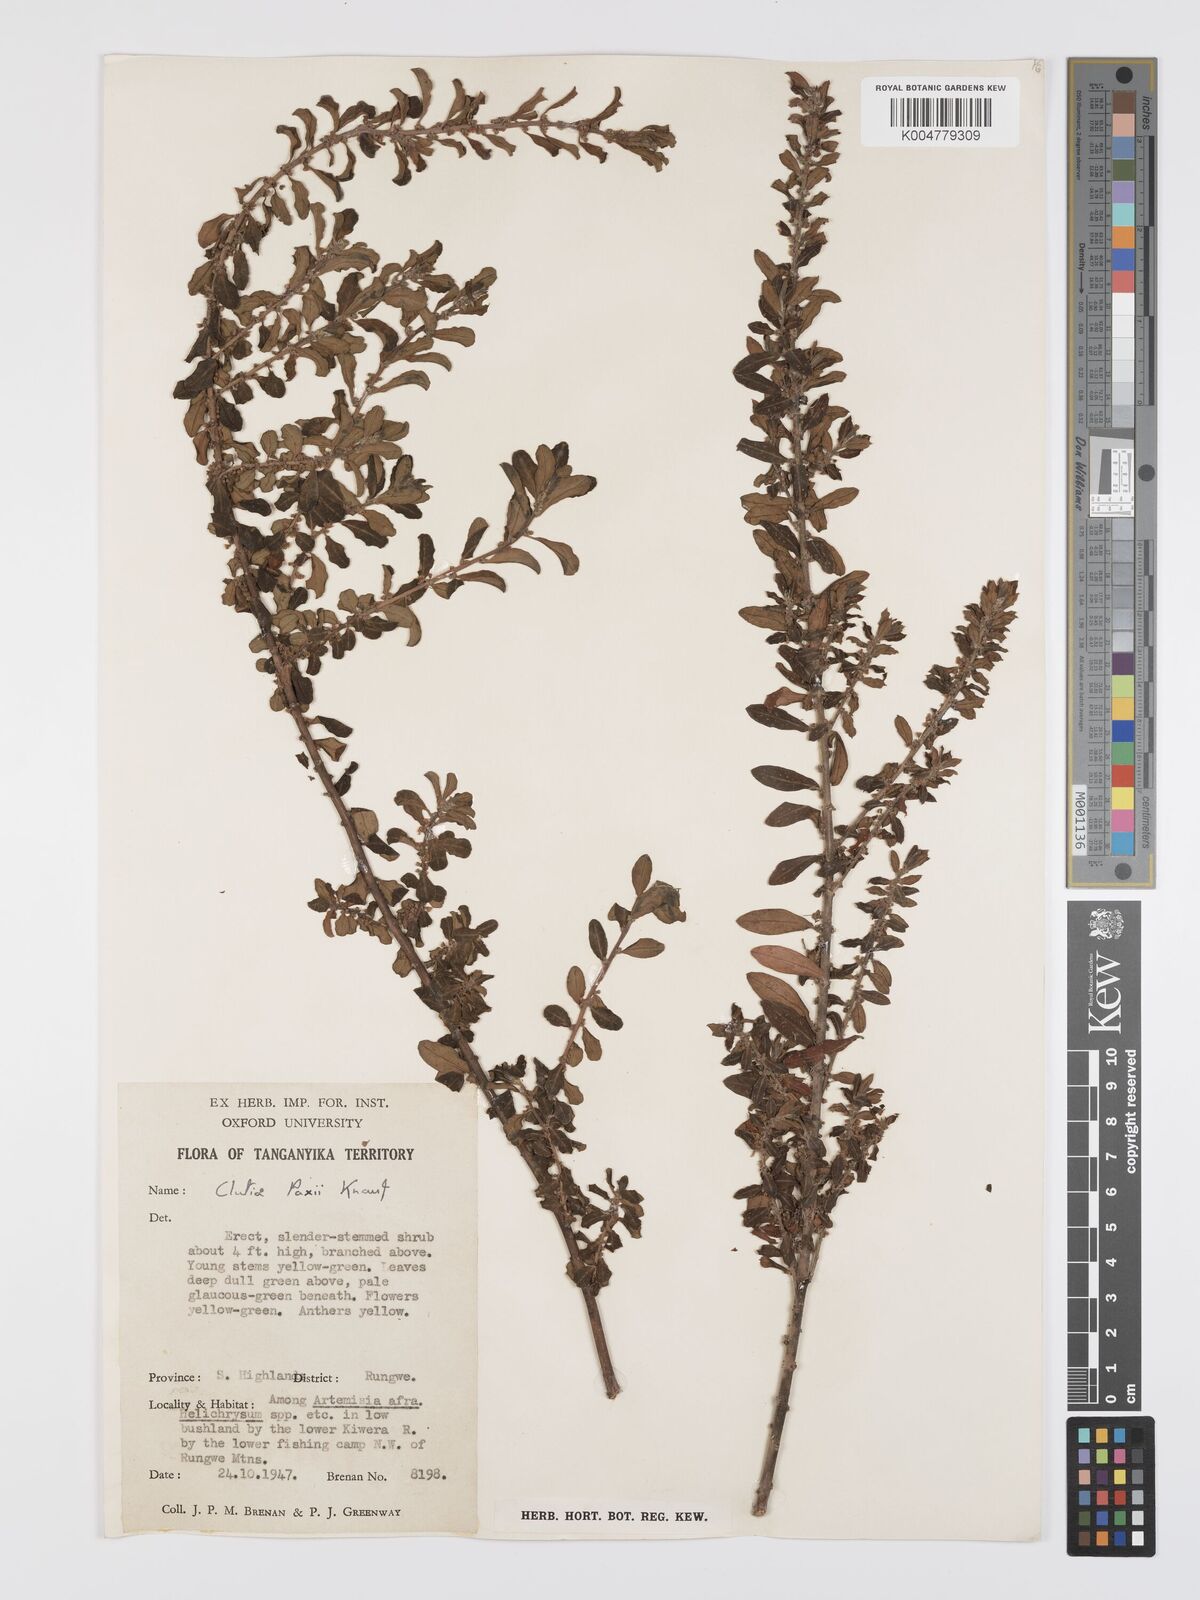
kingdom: Plantae
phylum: Tracheophyta
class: Magnoliopsida
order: Malpighiales
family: Peraceae
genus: Clutia
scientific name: Clutia paxii
